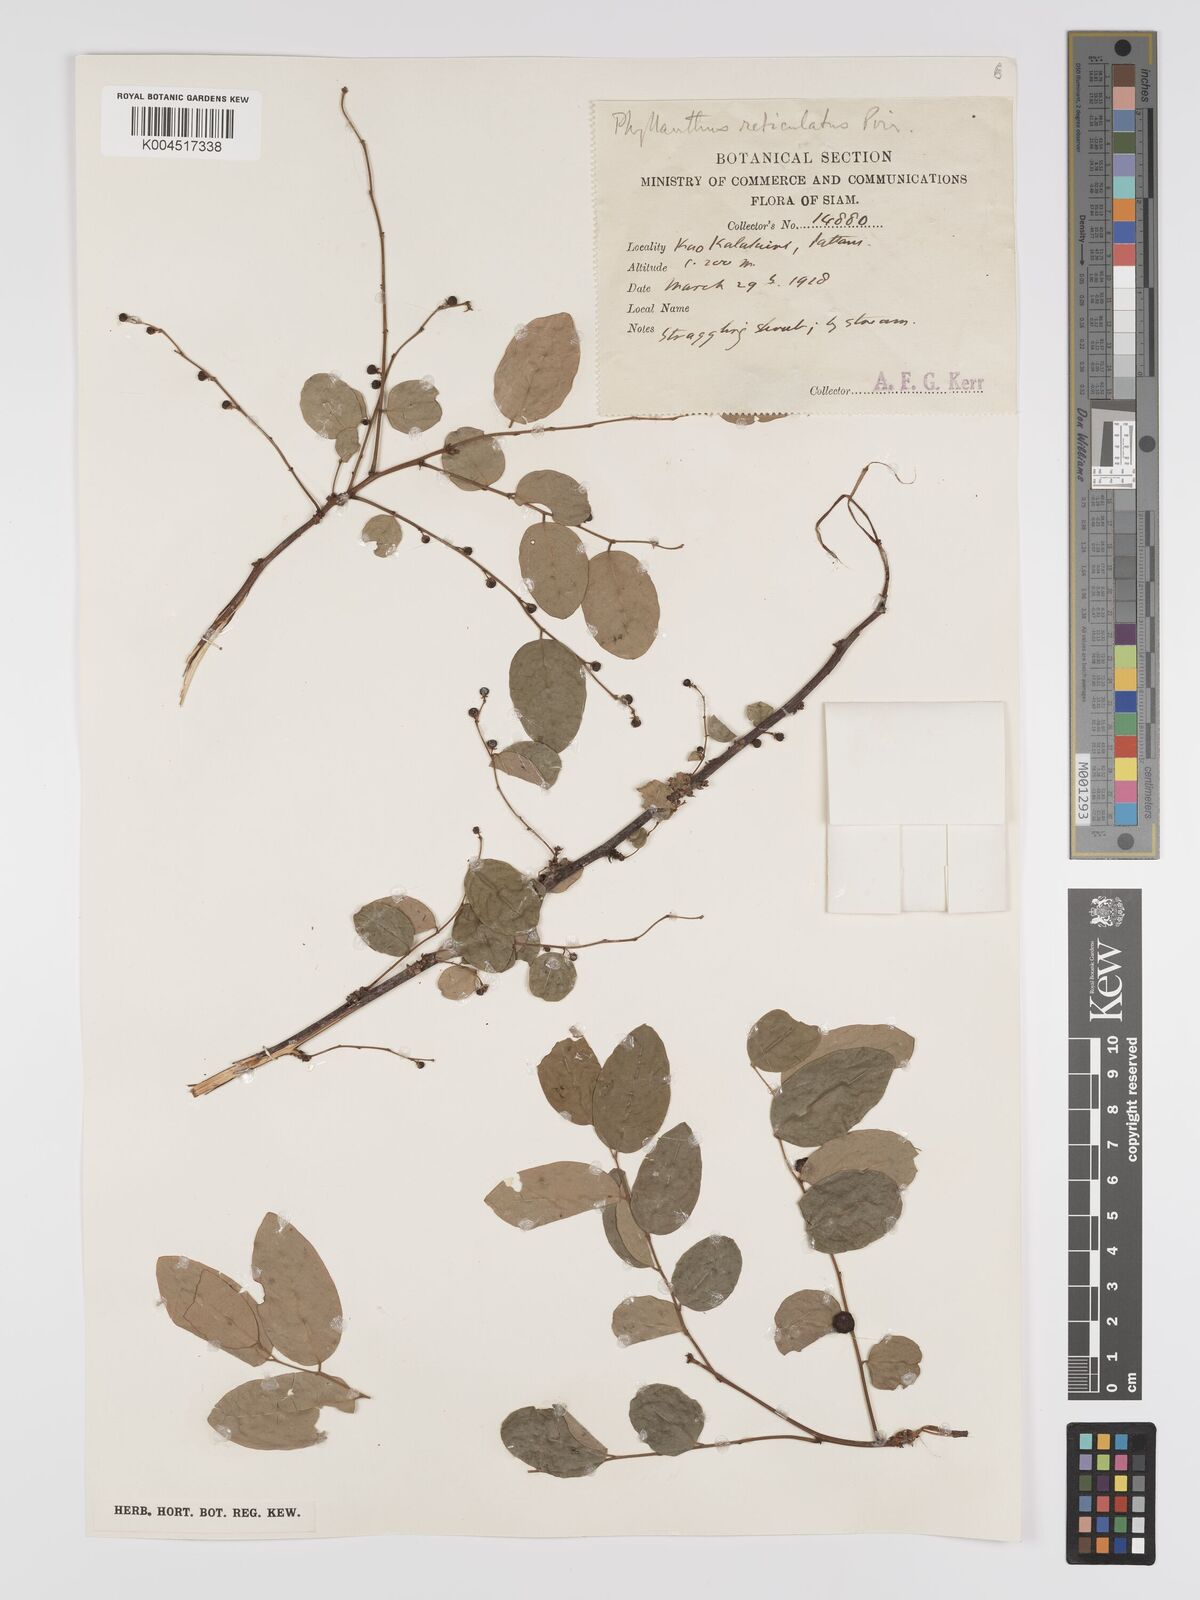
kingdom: Plantae
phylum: Tracheophyta
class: Magnoliopsida
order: Malpighiales
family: Phyllanthaceae
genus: Phyllanthus
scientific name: Phyllanthus reticulatus
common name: Potato bush
